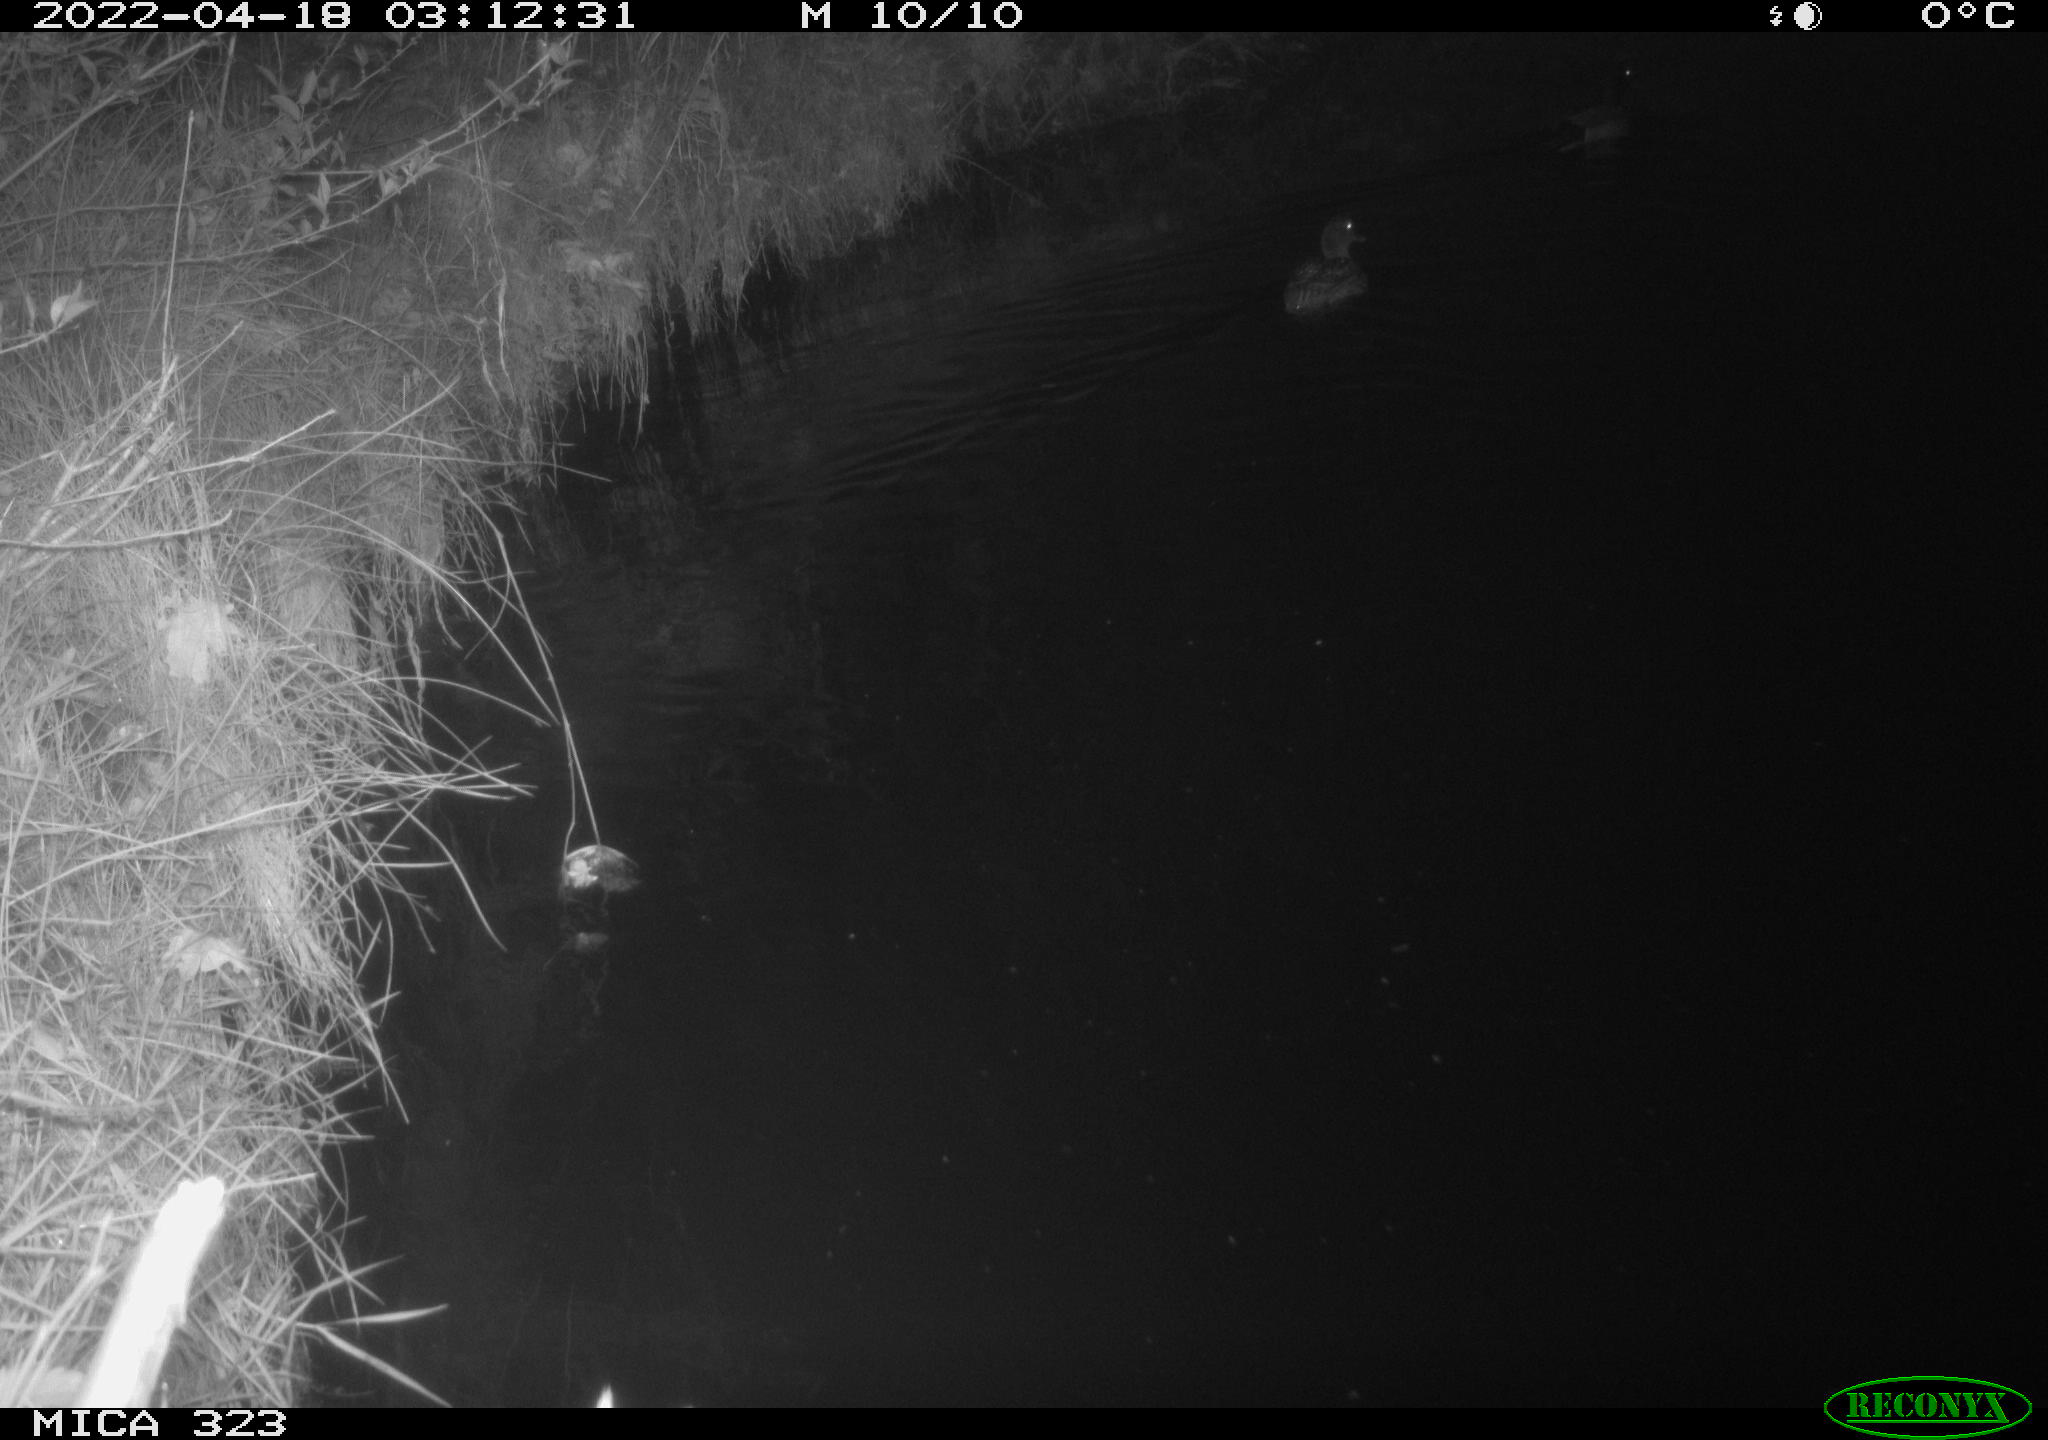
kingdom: Animalia
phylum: Chordata
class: Aves
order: Anseriformes
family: Anatidae
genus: Anas
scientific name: Anas
